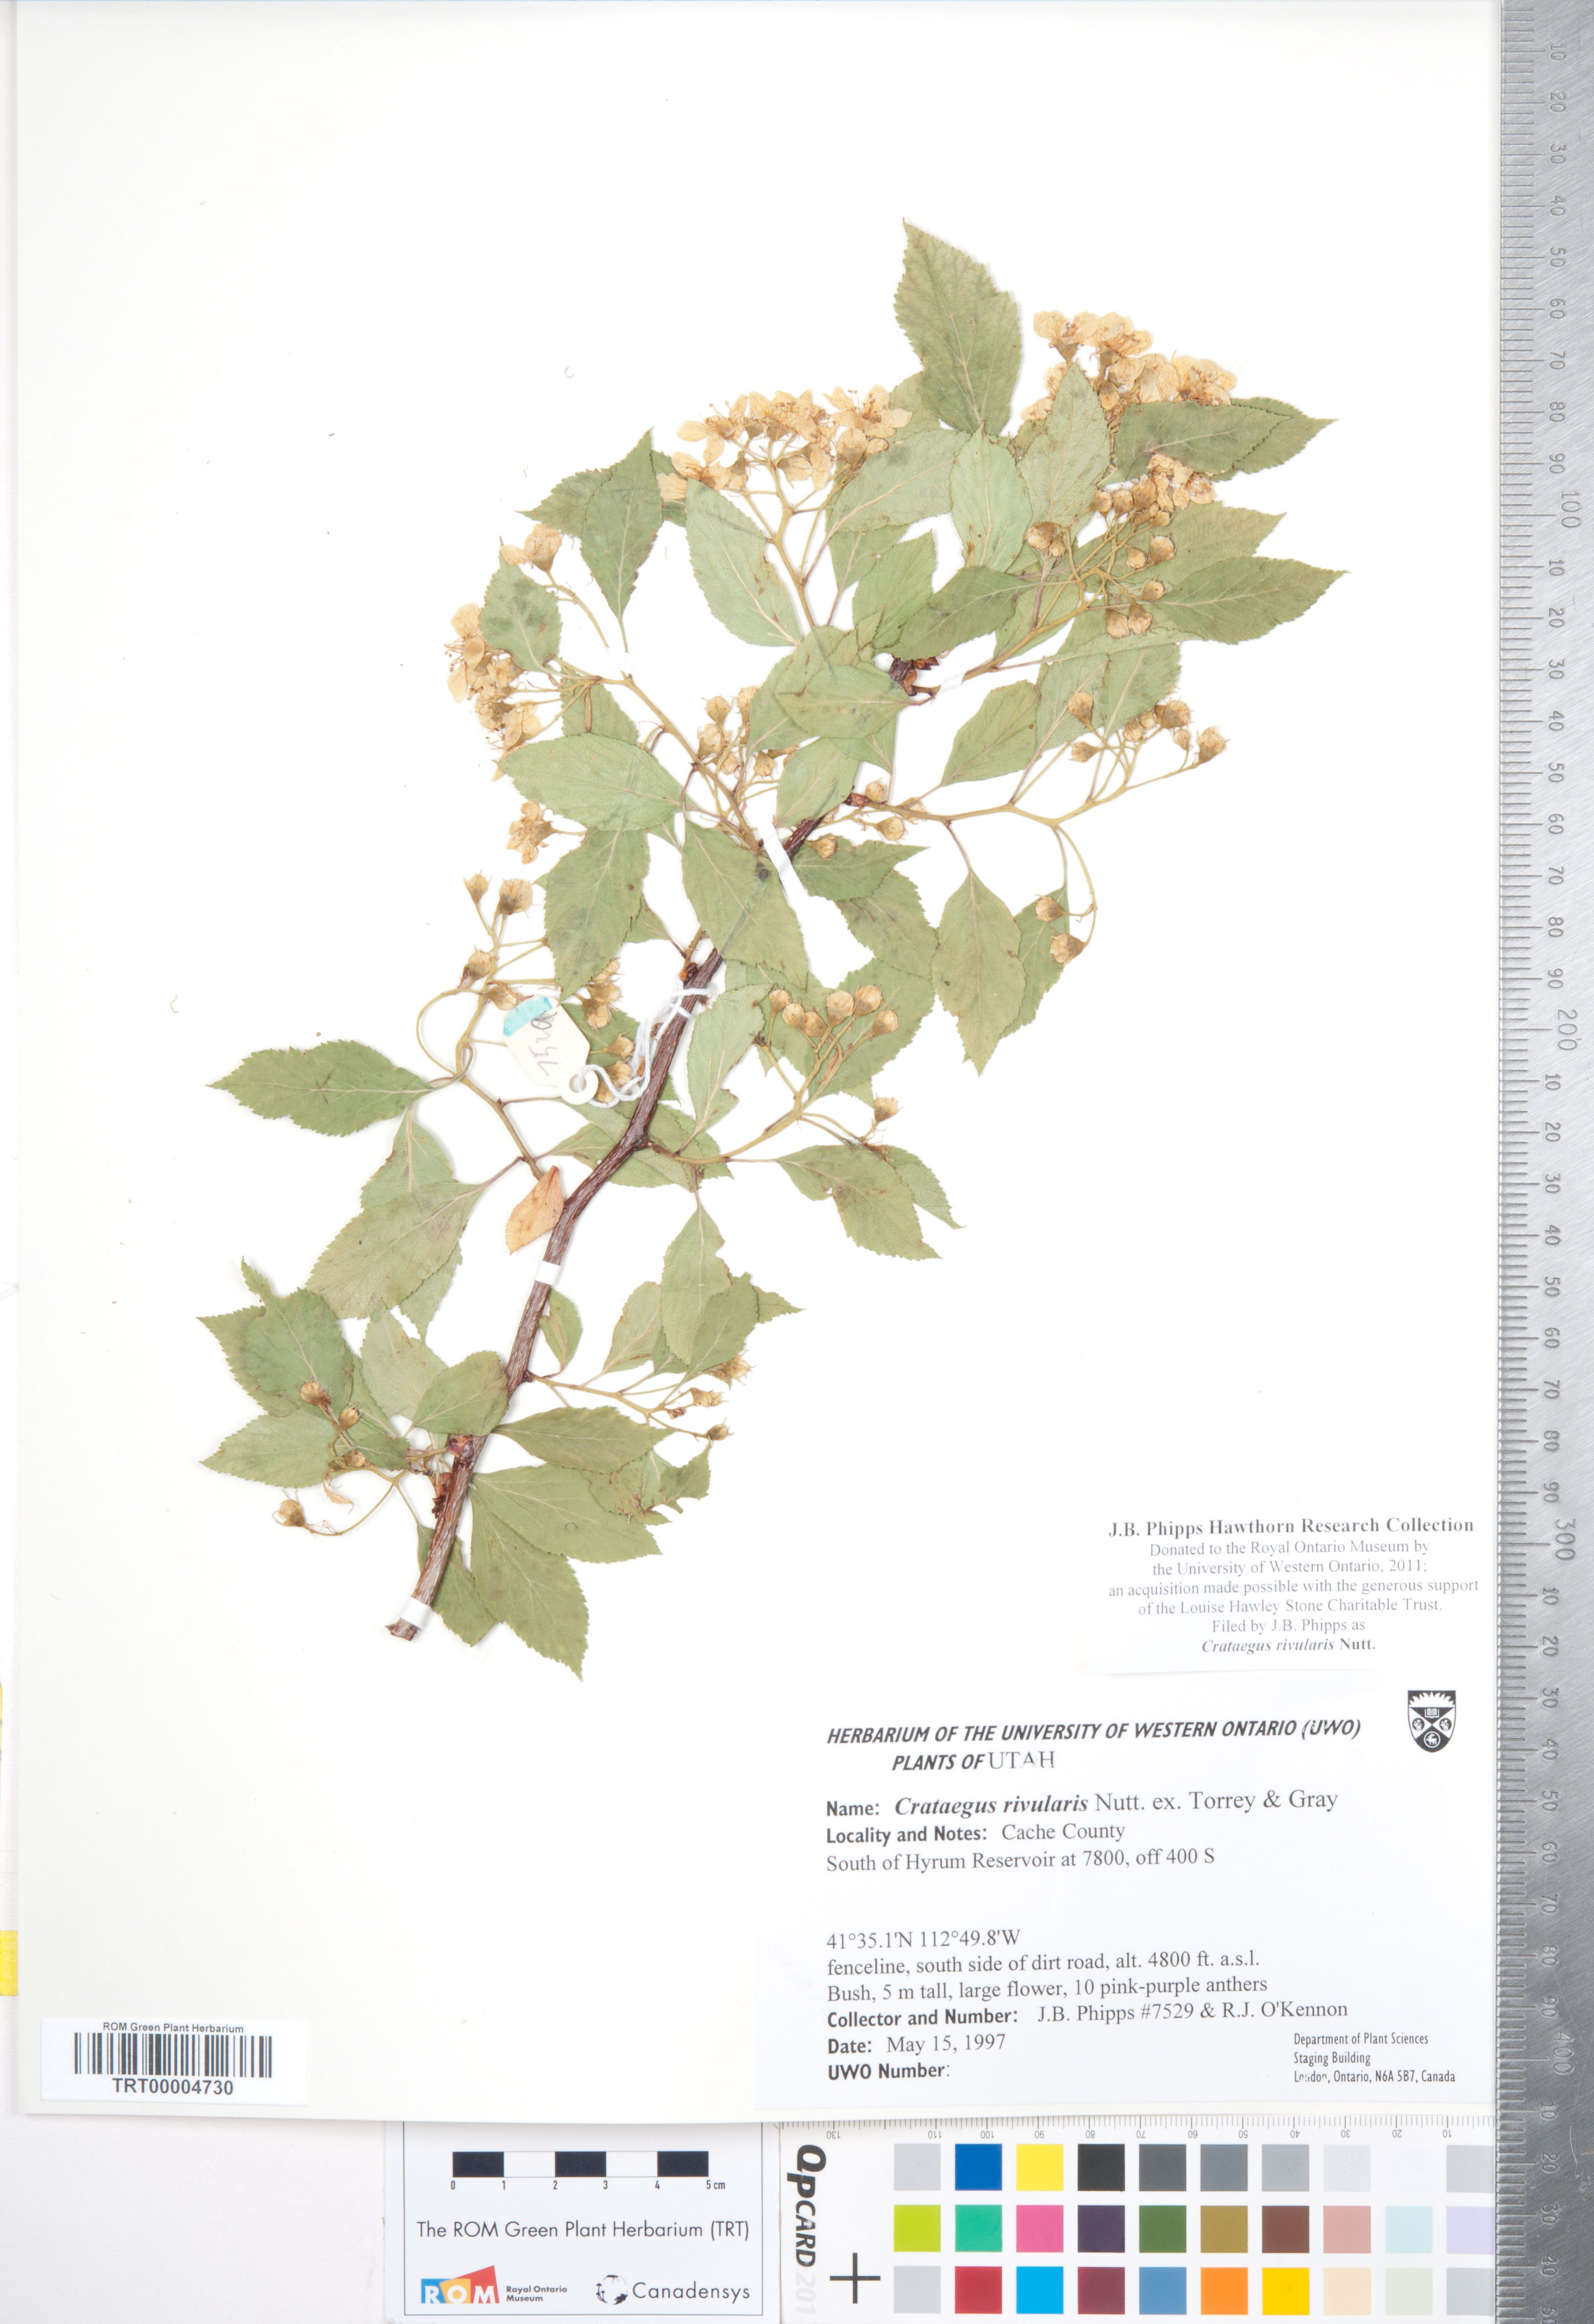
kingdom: Plantae
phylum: Tracheophyta
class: Magnoliopsida
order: Rosales
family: Rosaceae
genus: Crataegus
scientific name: Crataegus rivularis
